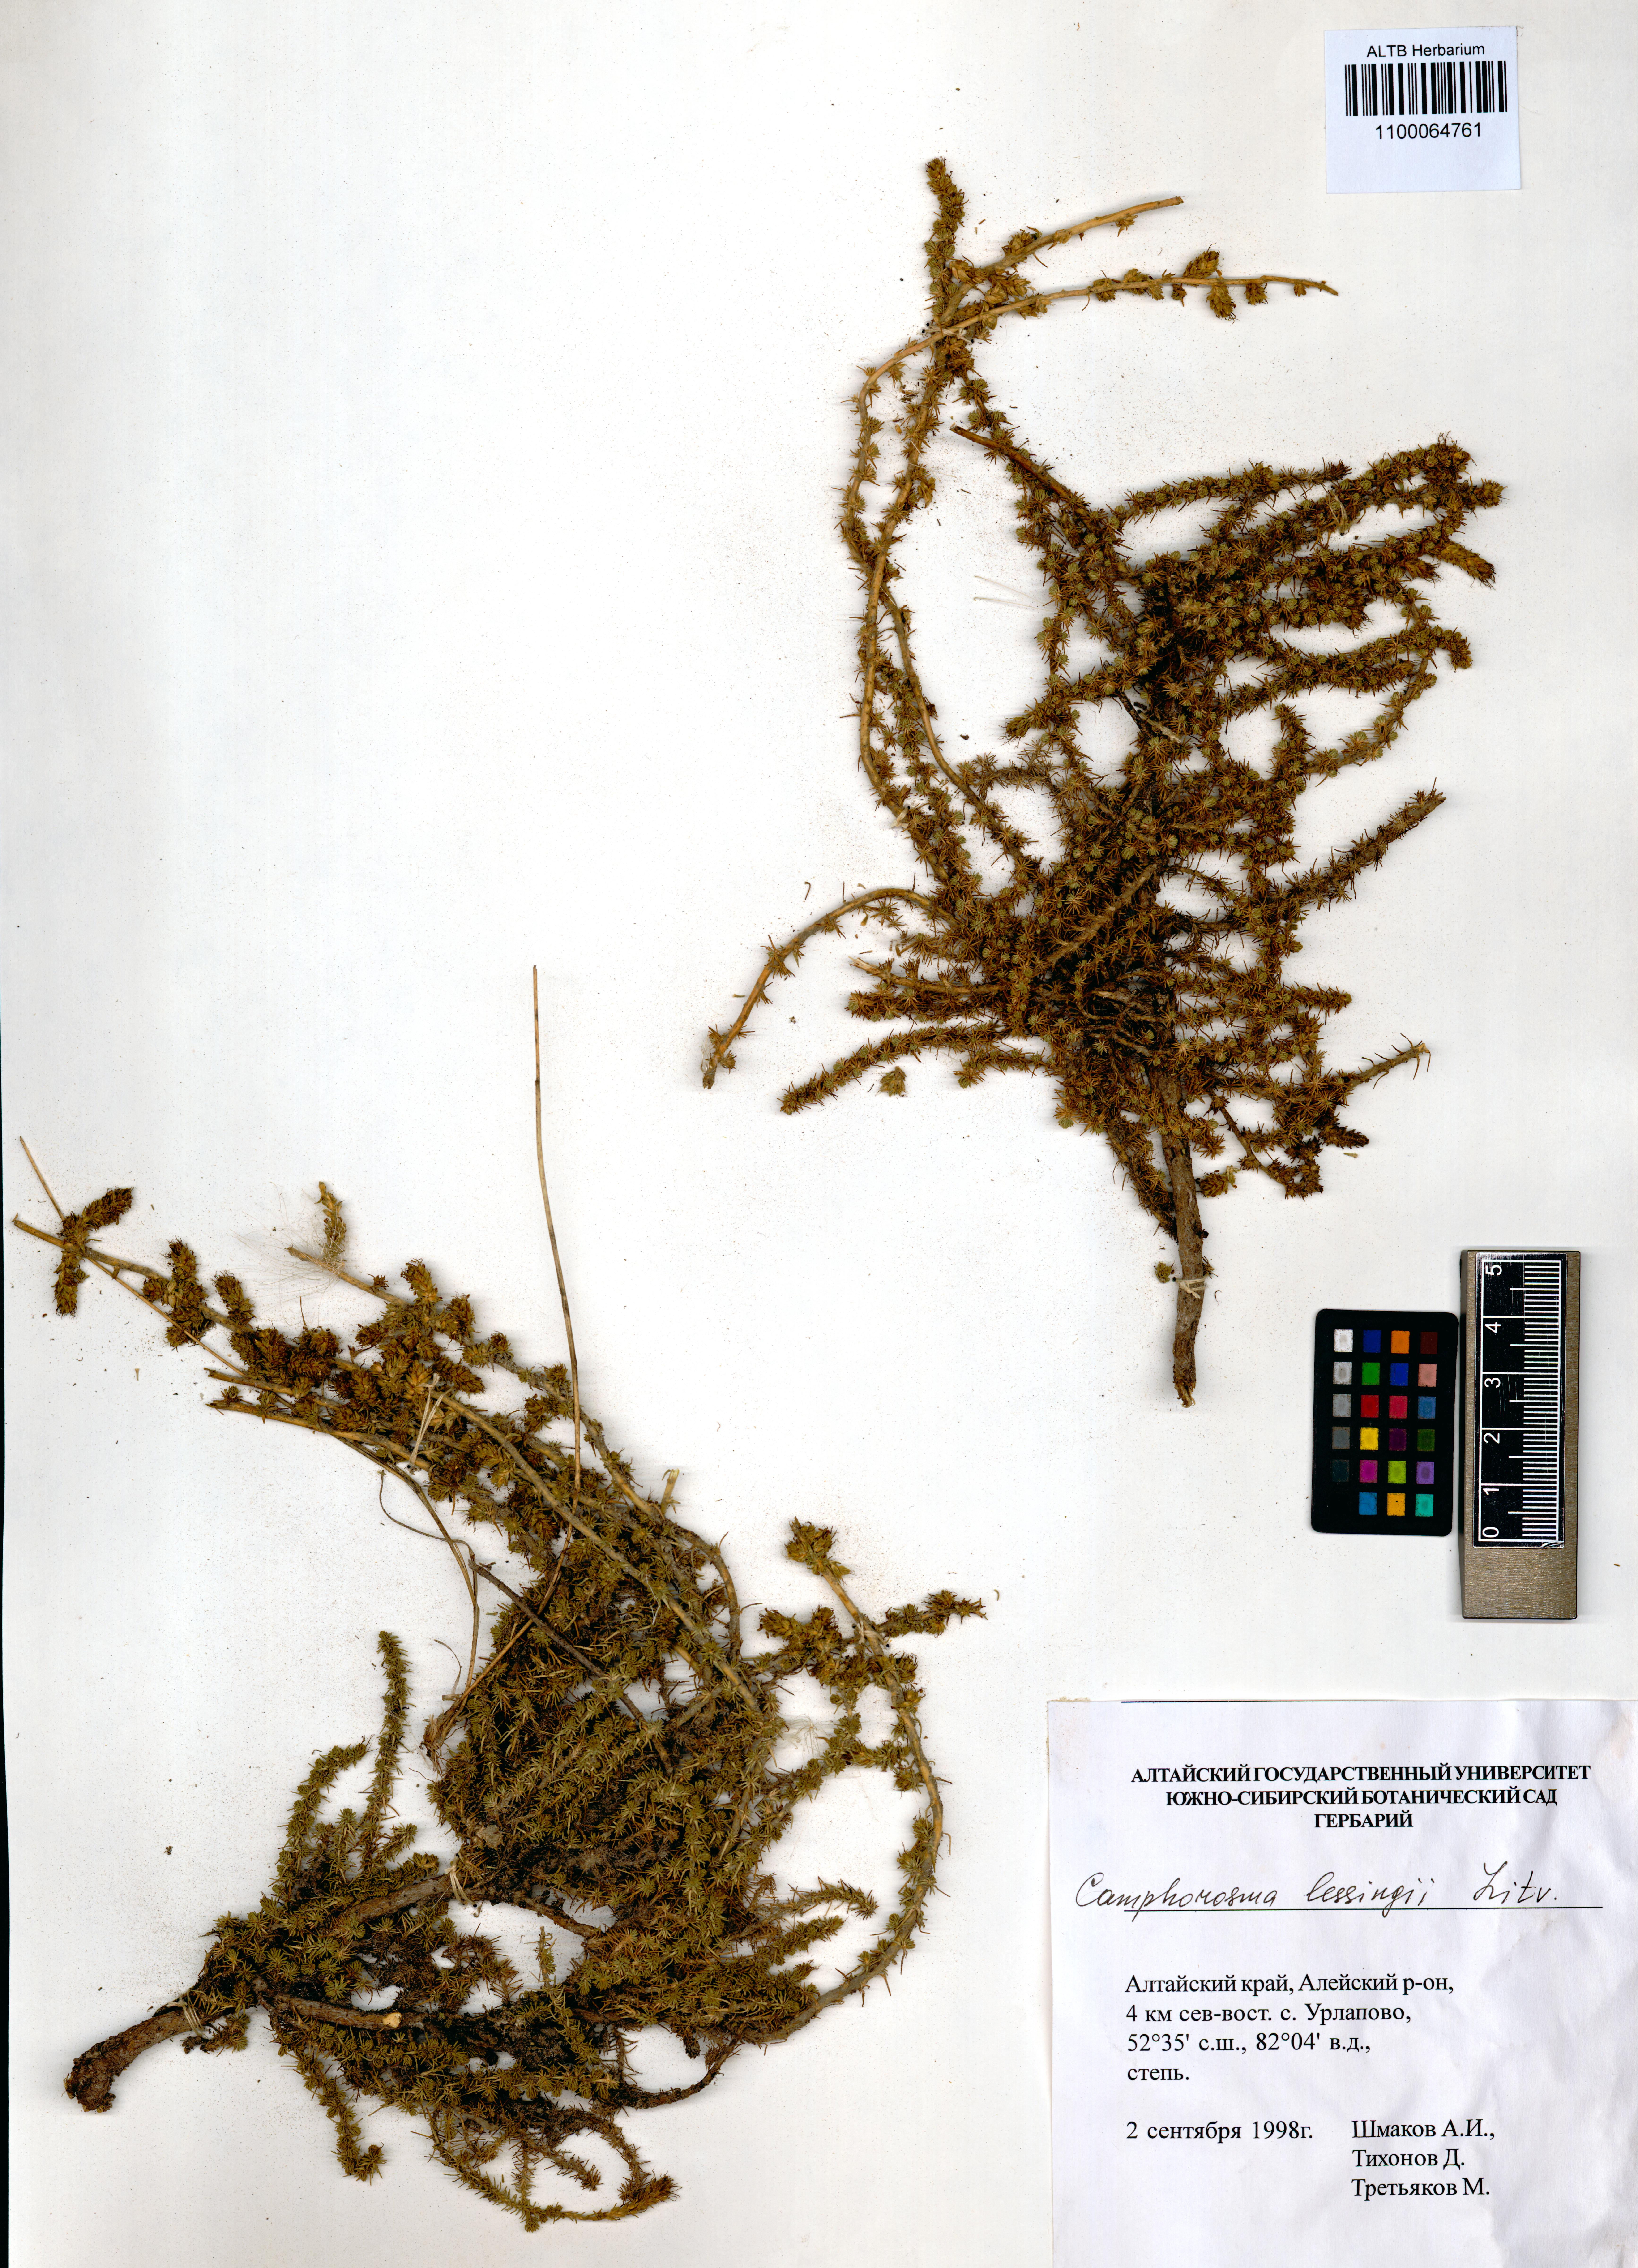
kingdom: Plantae
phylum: Tracheophyta
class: Magnoliopsida
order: Caryophyllales
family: Amaranthaceae
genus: Camphorosma
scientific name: Camphorosma monspeliaca
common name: Camphorfume
